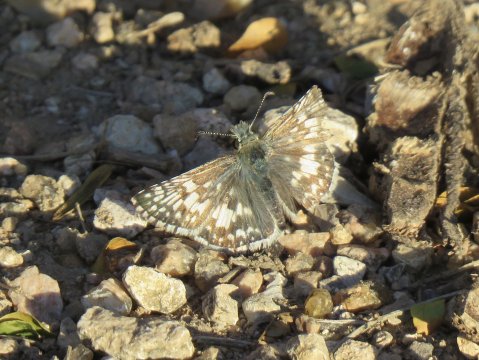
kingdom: Animalia
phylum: Arthropoda
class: Insecta
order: Lepidoptera
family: Hesperiidae
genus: Pyrgus
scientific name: Pyrgus communis
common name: White Checkered-Skipper
